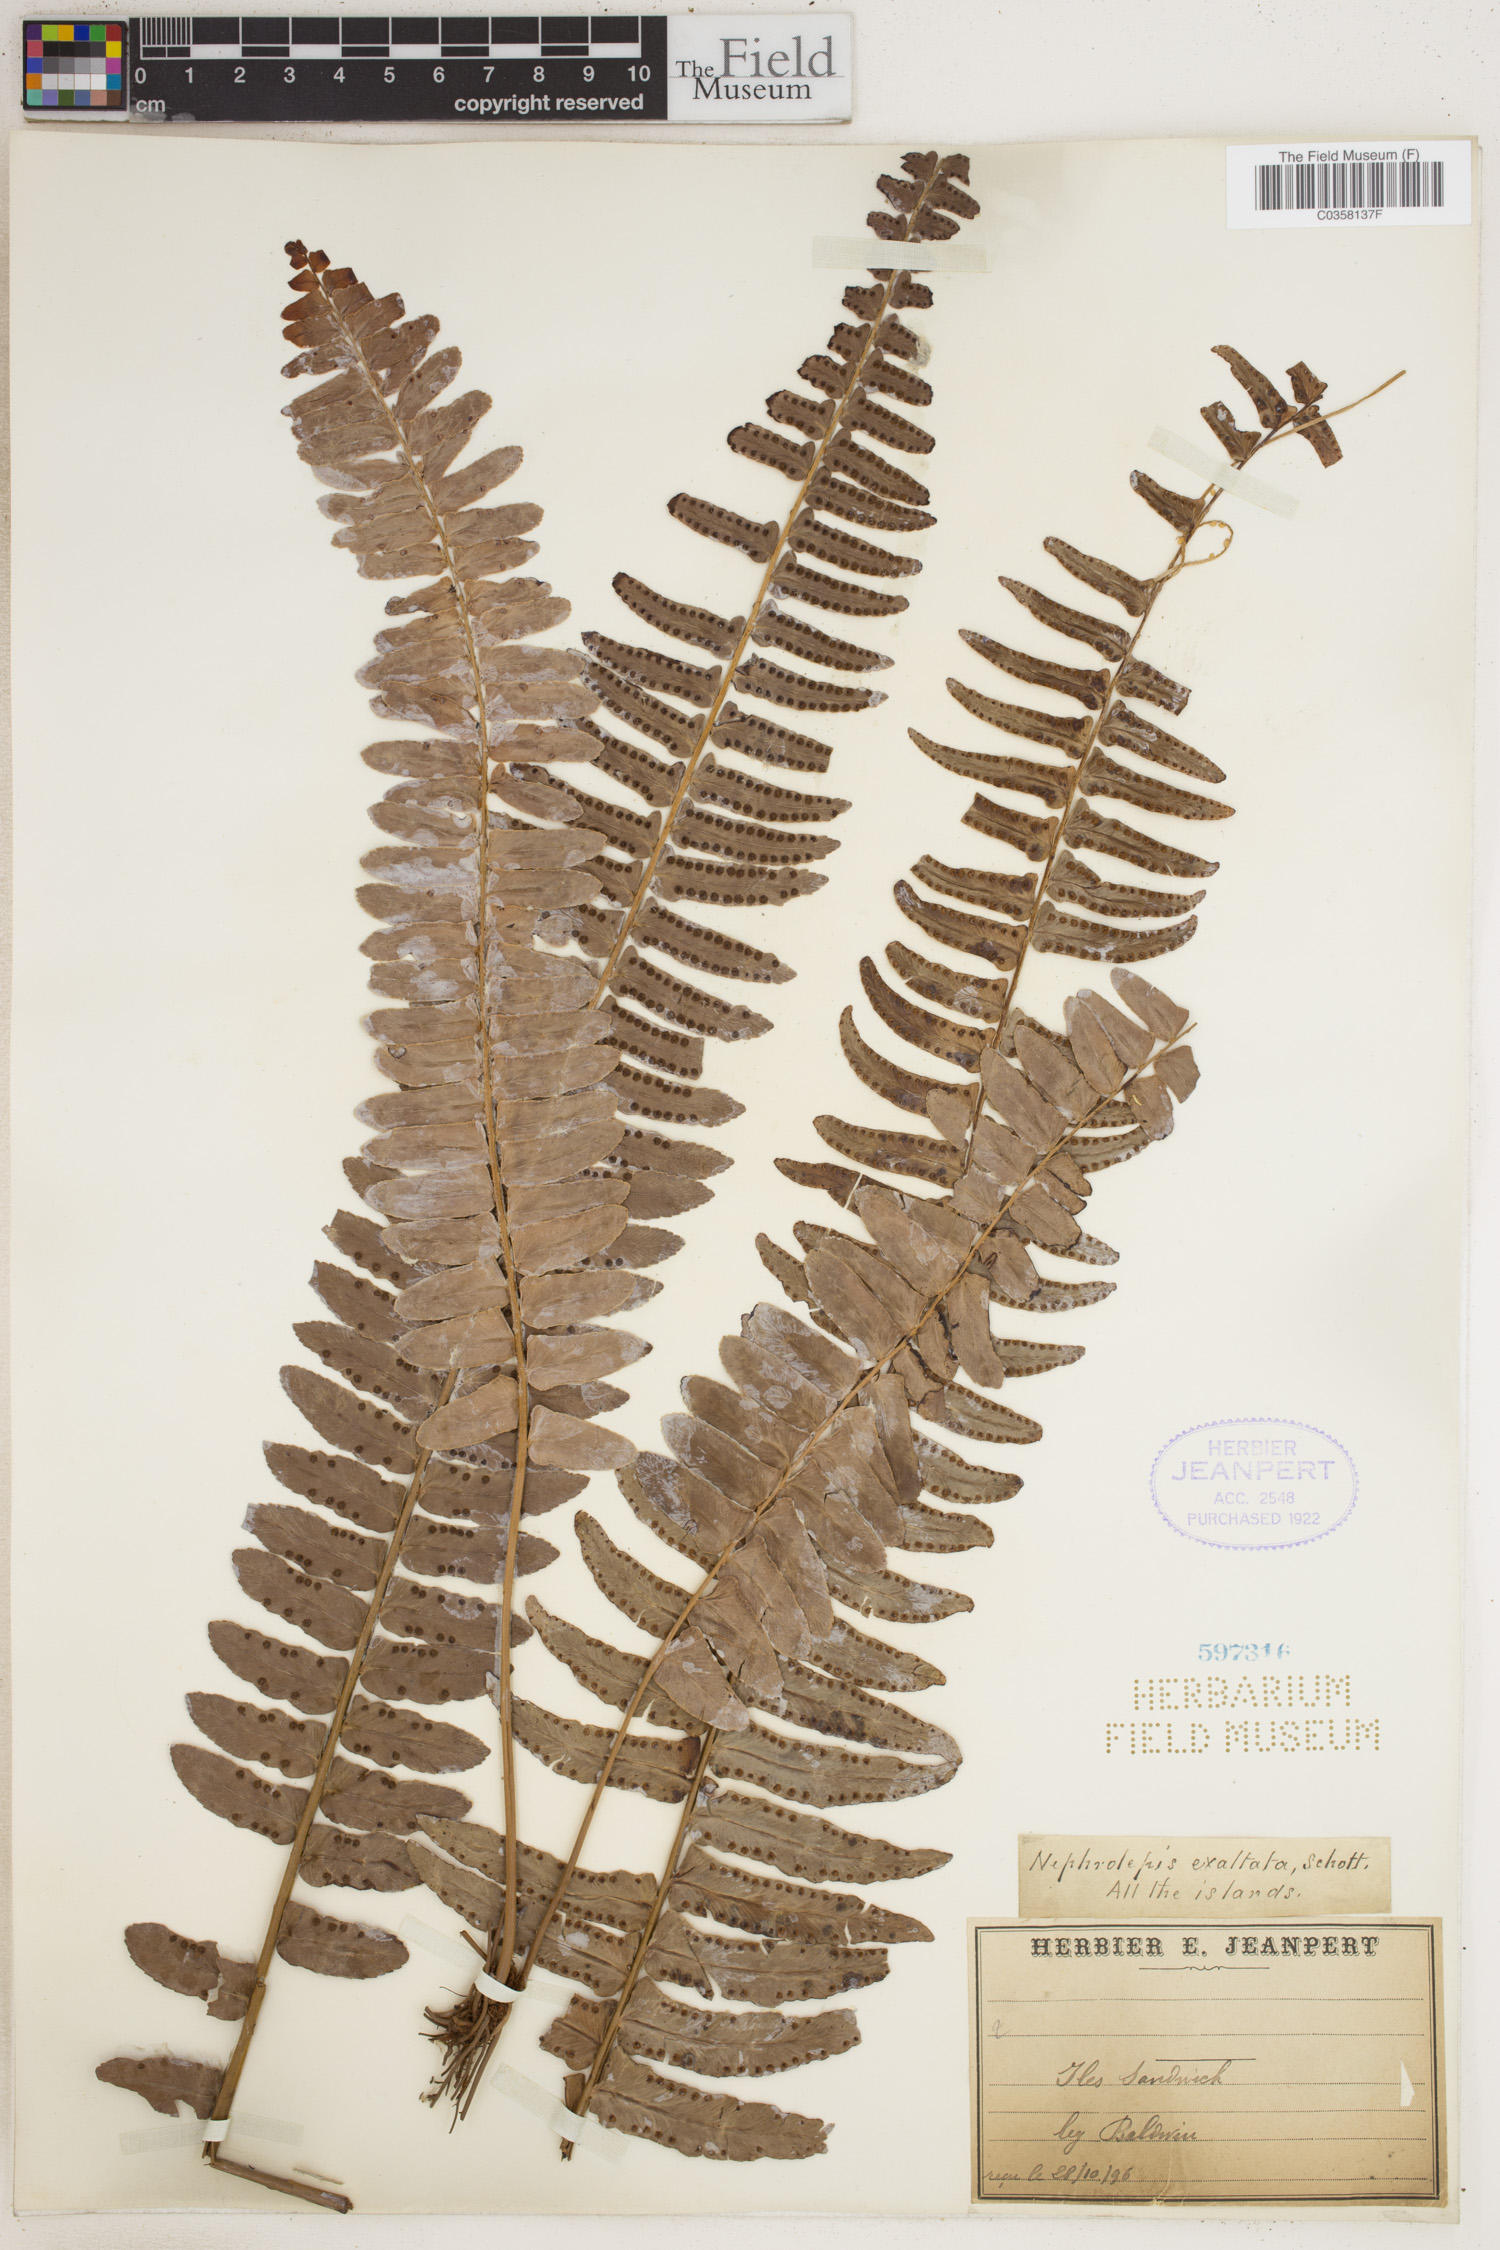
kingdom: Plantae
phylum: Tracheophyta
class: Polypodiopsida
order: Polypodiales
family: Nephrolepidaceae
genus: Nephrolepis
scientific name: Nephrolepis cordifolia
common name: Narrow swordfern
